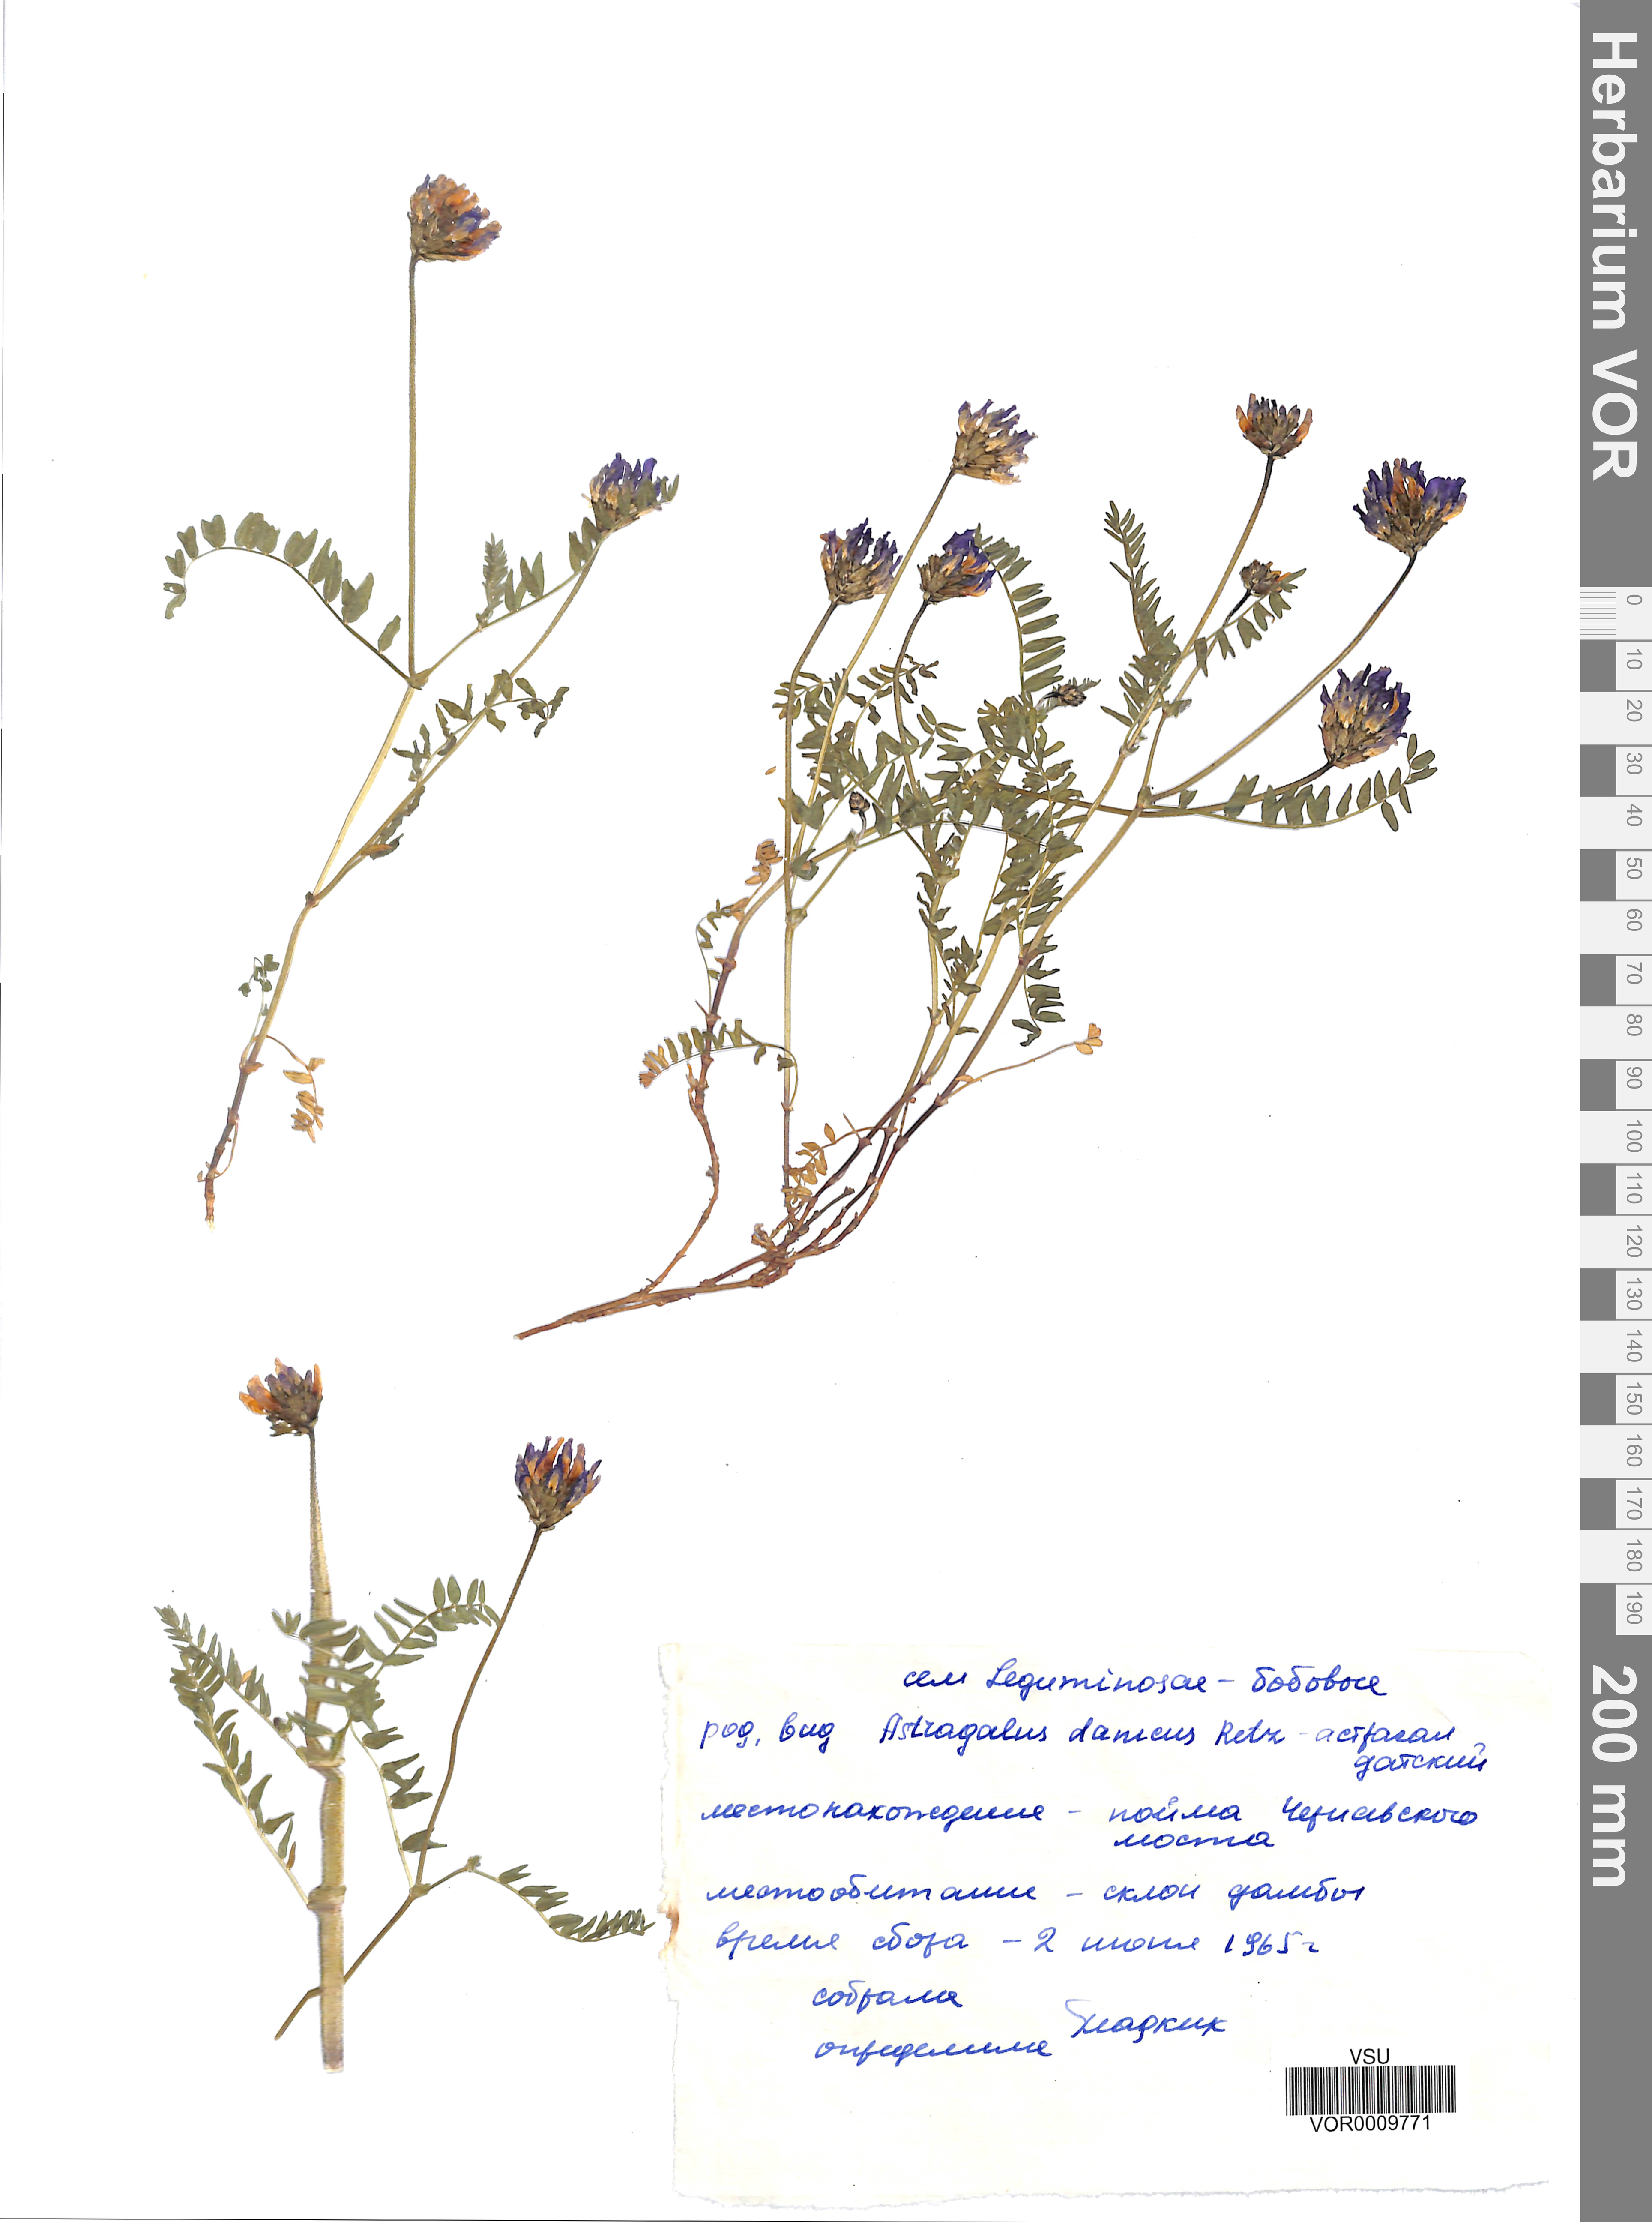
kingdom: Plantae
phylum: Tracheophyta
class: Magnoliopsida
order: Fabales
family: Fabaceae
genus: Astragalus
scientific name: Astragalus danicus
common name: Purple milk-vetch
